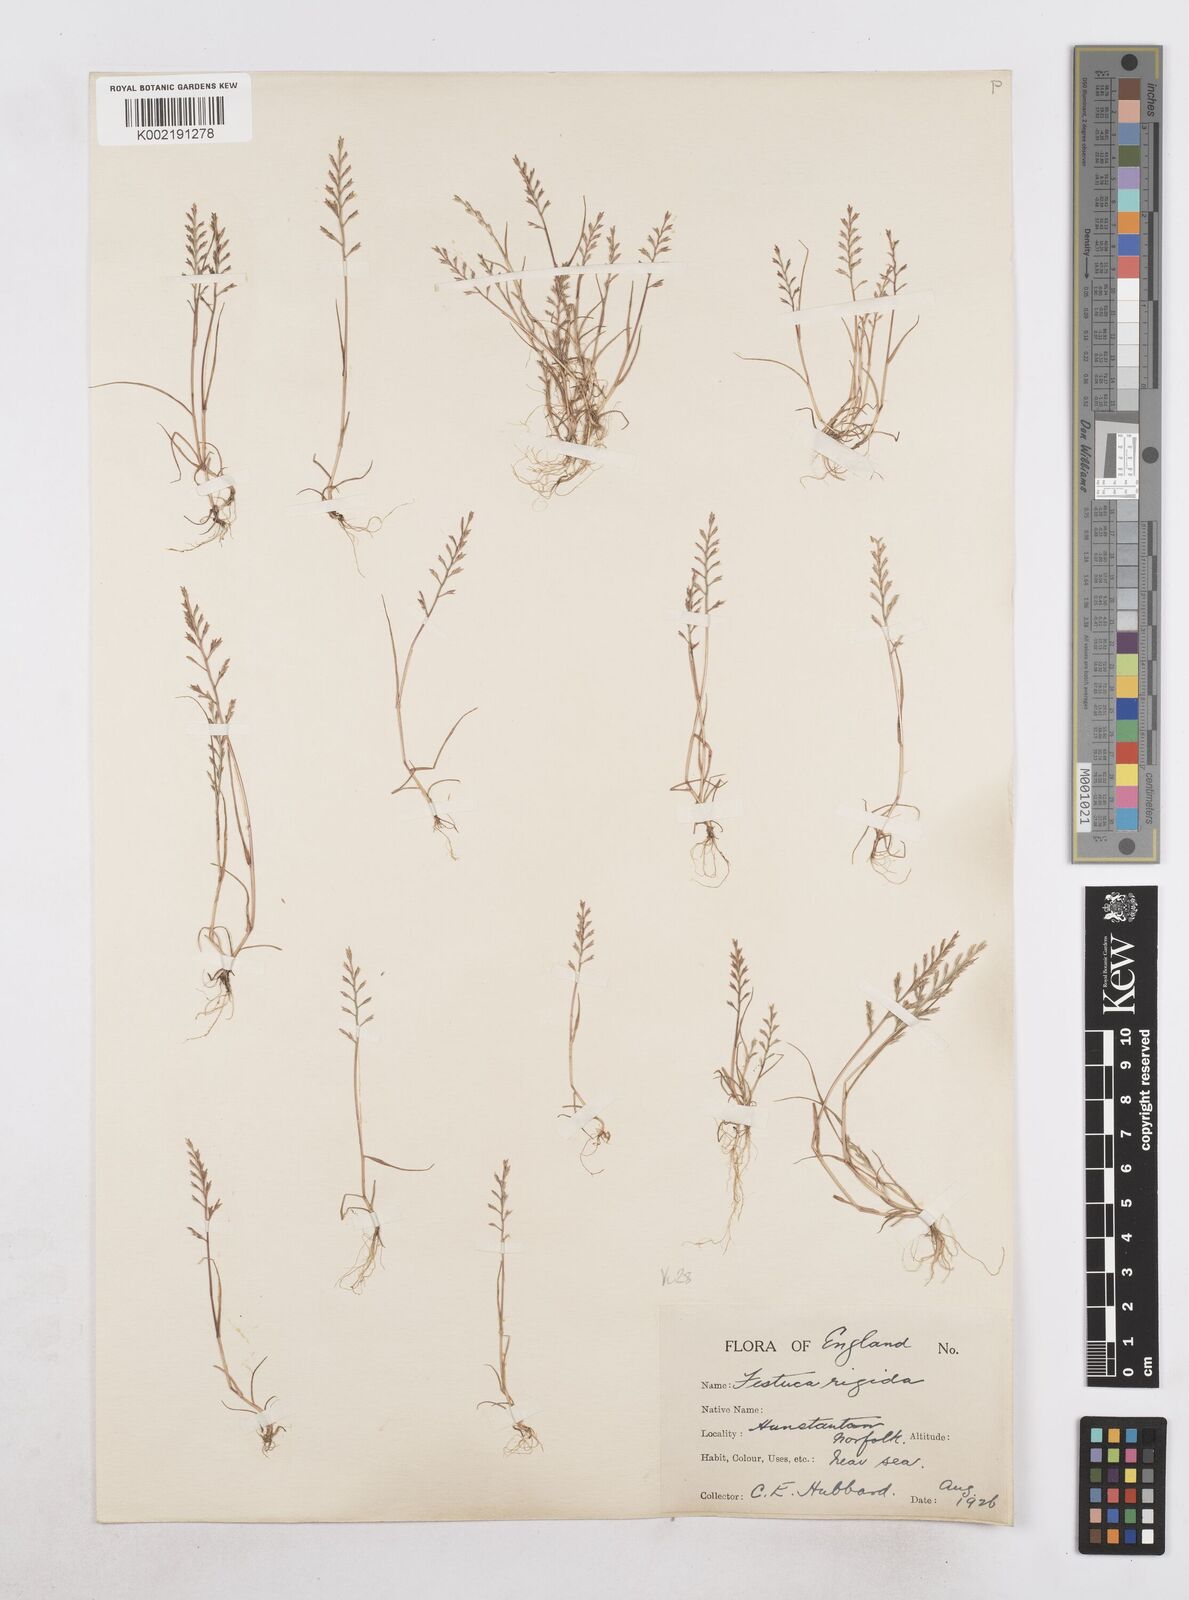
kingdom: Plantae
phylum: Tracheophyta
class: Liliopsida
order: Poales
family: Poaceae
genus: Catapodium
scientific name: Catapodium rigidum
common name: Fern-grass
